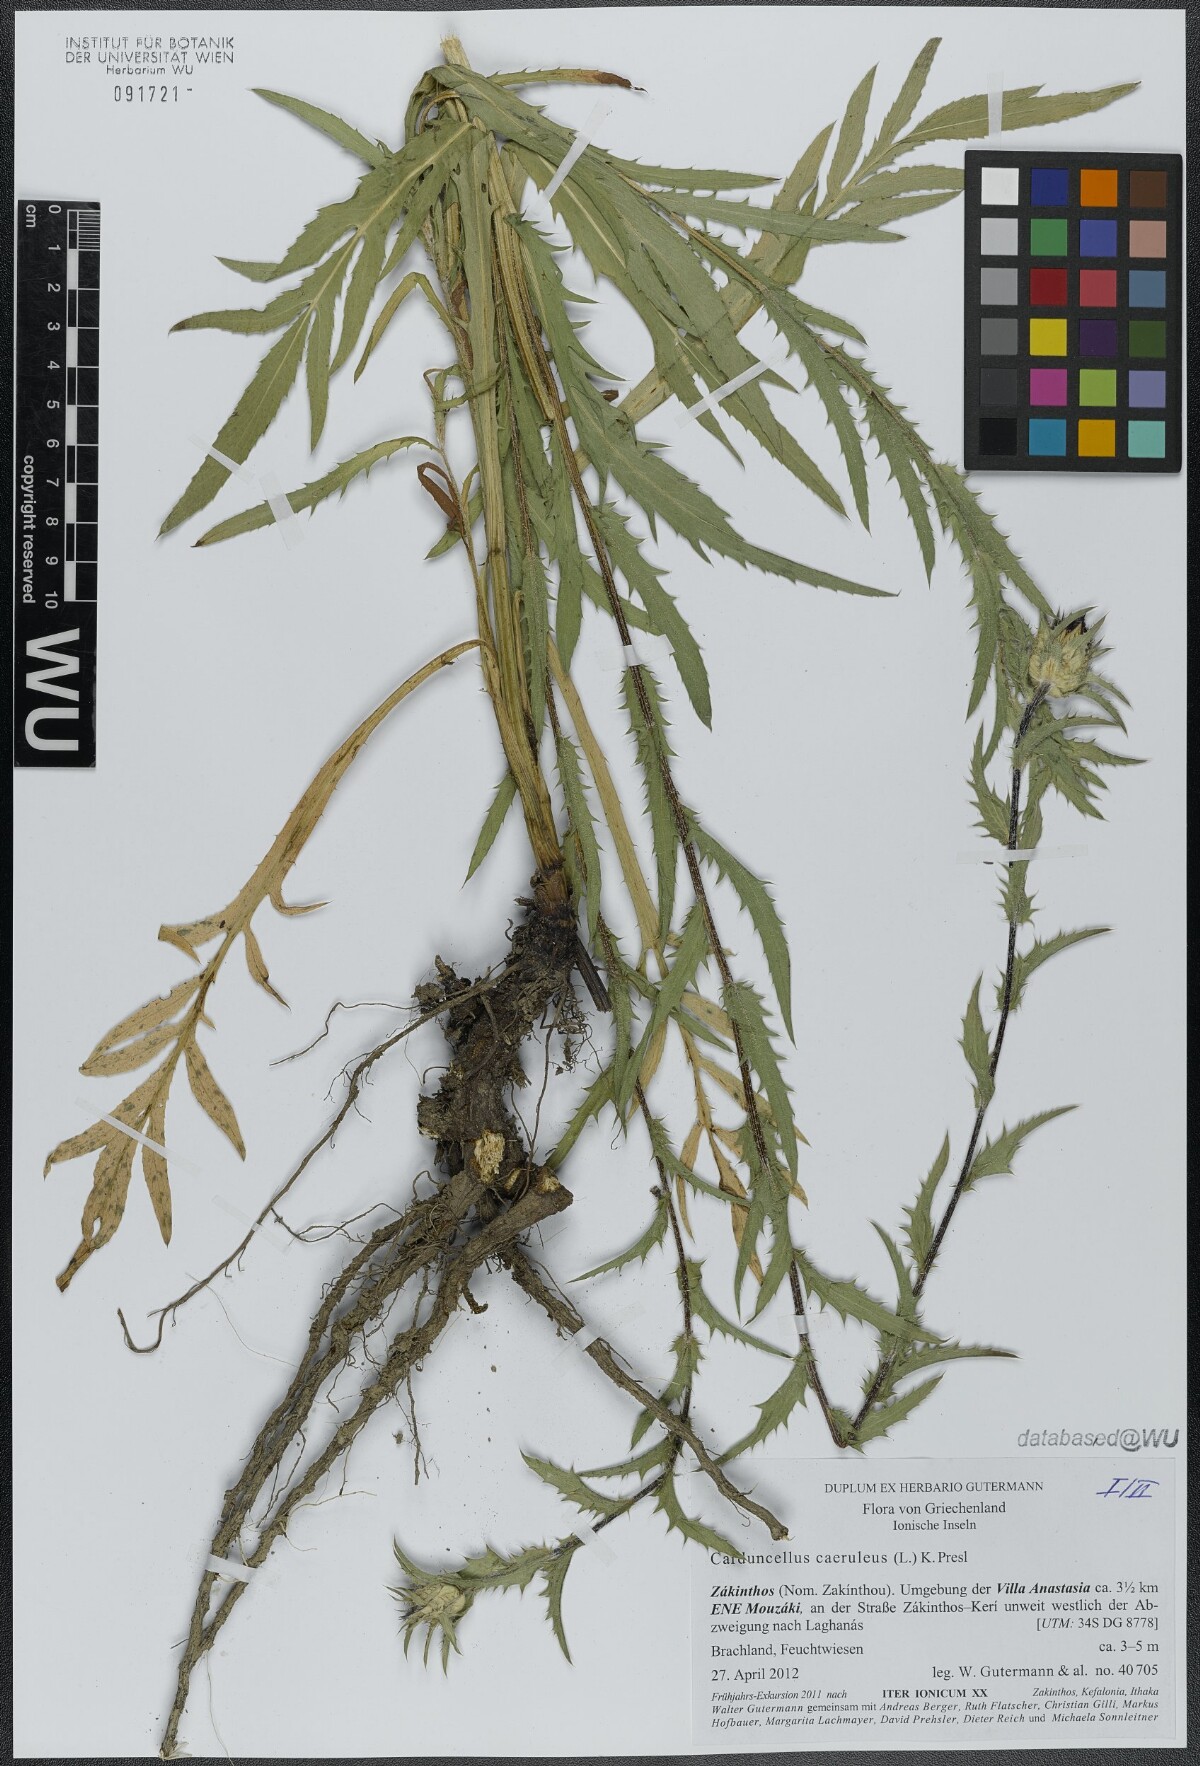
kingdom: Plantae
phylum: Tracheophyta
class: Magnoliopsida
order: Asterales
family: Asteraceae
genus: Carduncellus
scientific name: Carduncellus caeruleus
